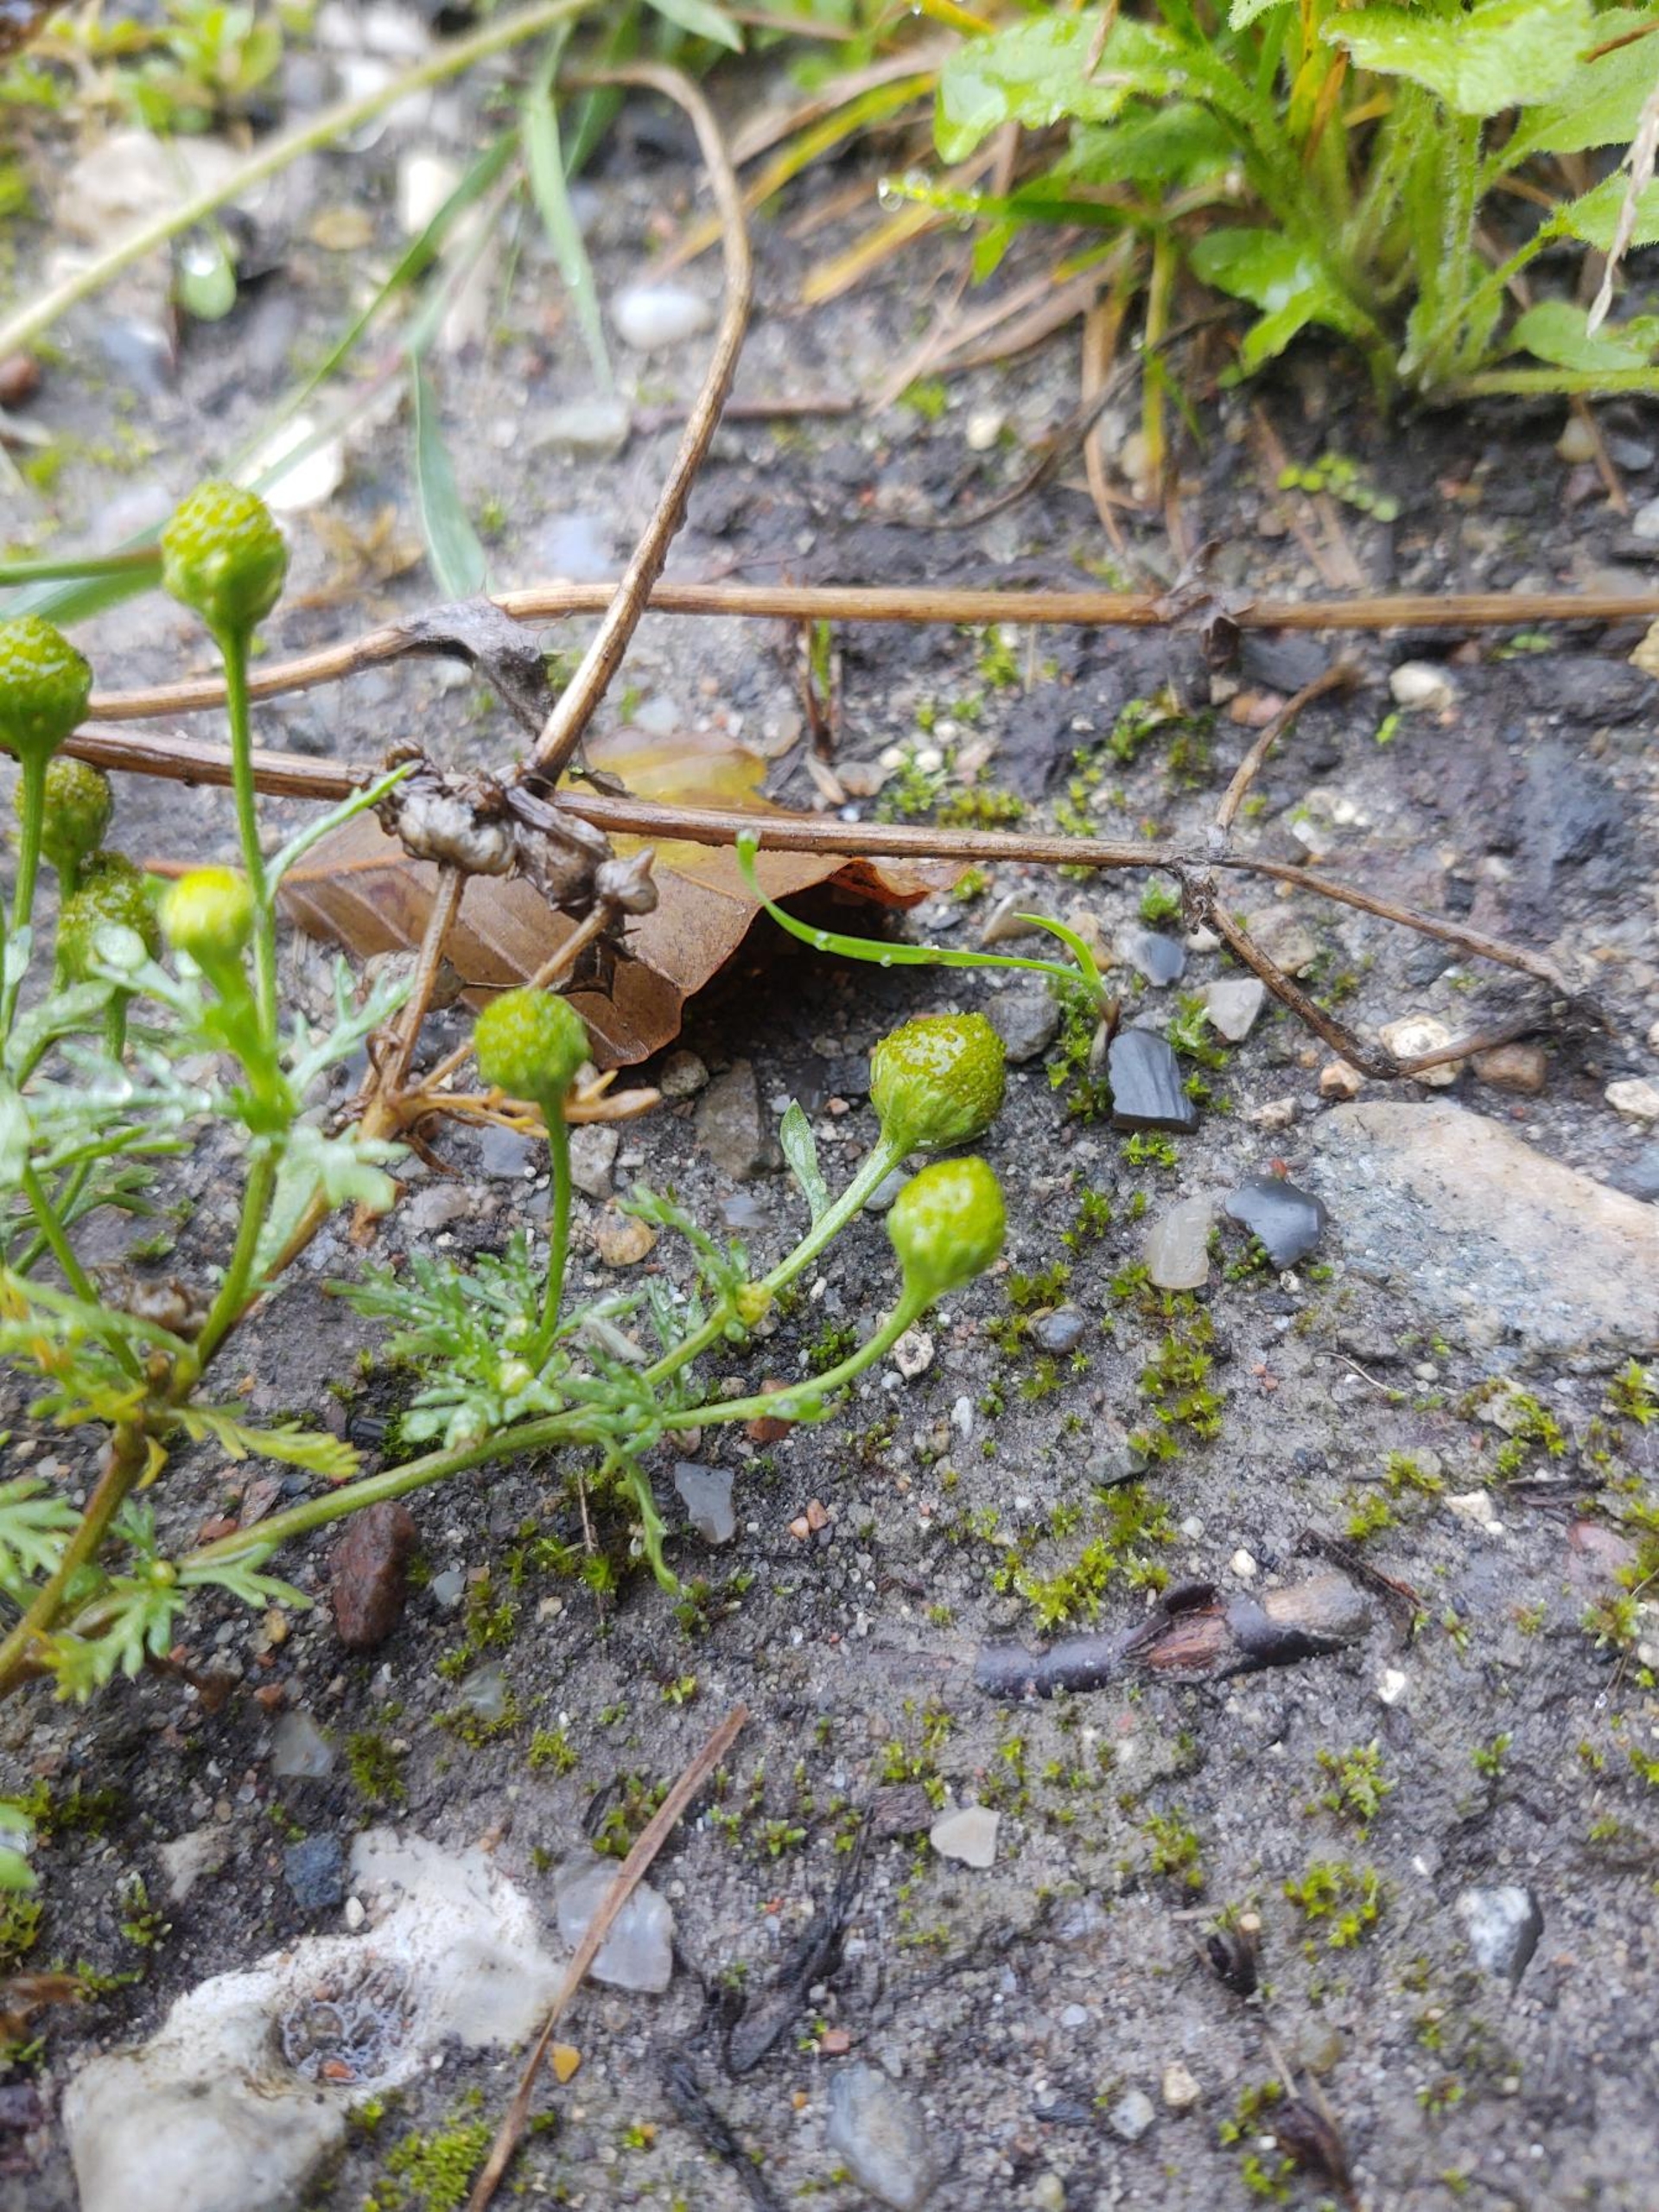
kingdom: Plantae
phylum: Tracheophyta
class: Magnoliopsida
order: Asterales
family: Asteraceae
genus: Matricaria
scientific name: Matricaria discoidea
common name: Skive-kamille
